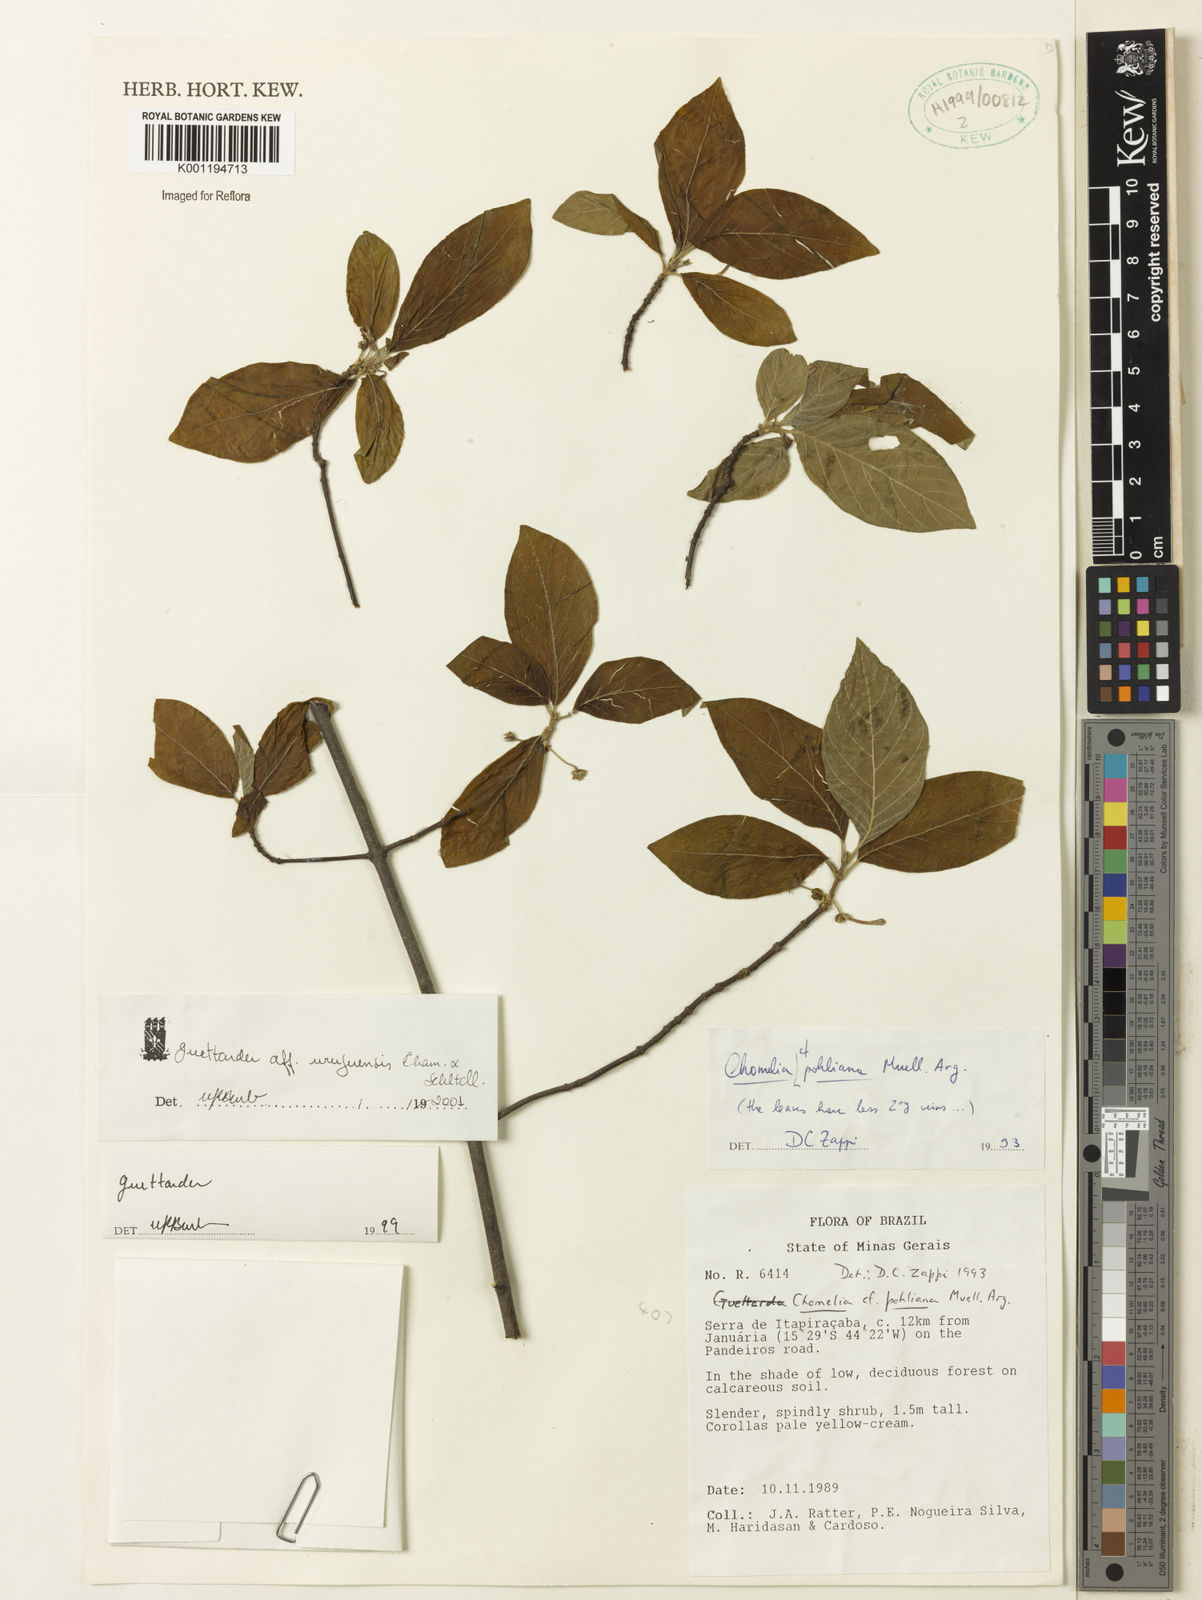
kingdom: Plantae
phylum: Tracheophyta
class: Magnoliopsida
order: Gentianales
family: Rubiaceae
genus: Guettarda
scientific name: Guettarda uruguensis
